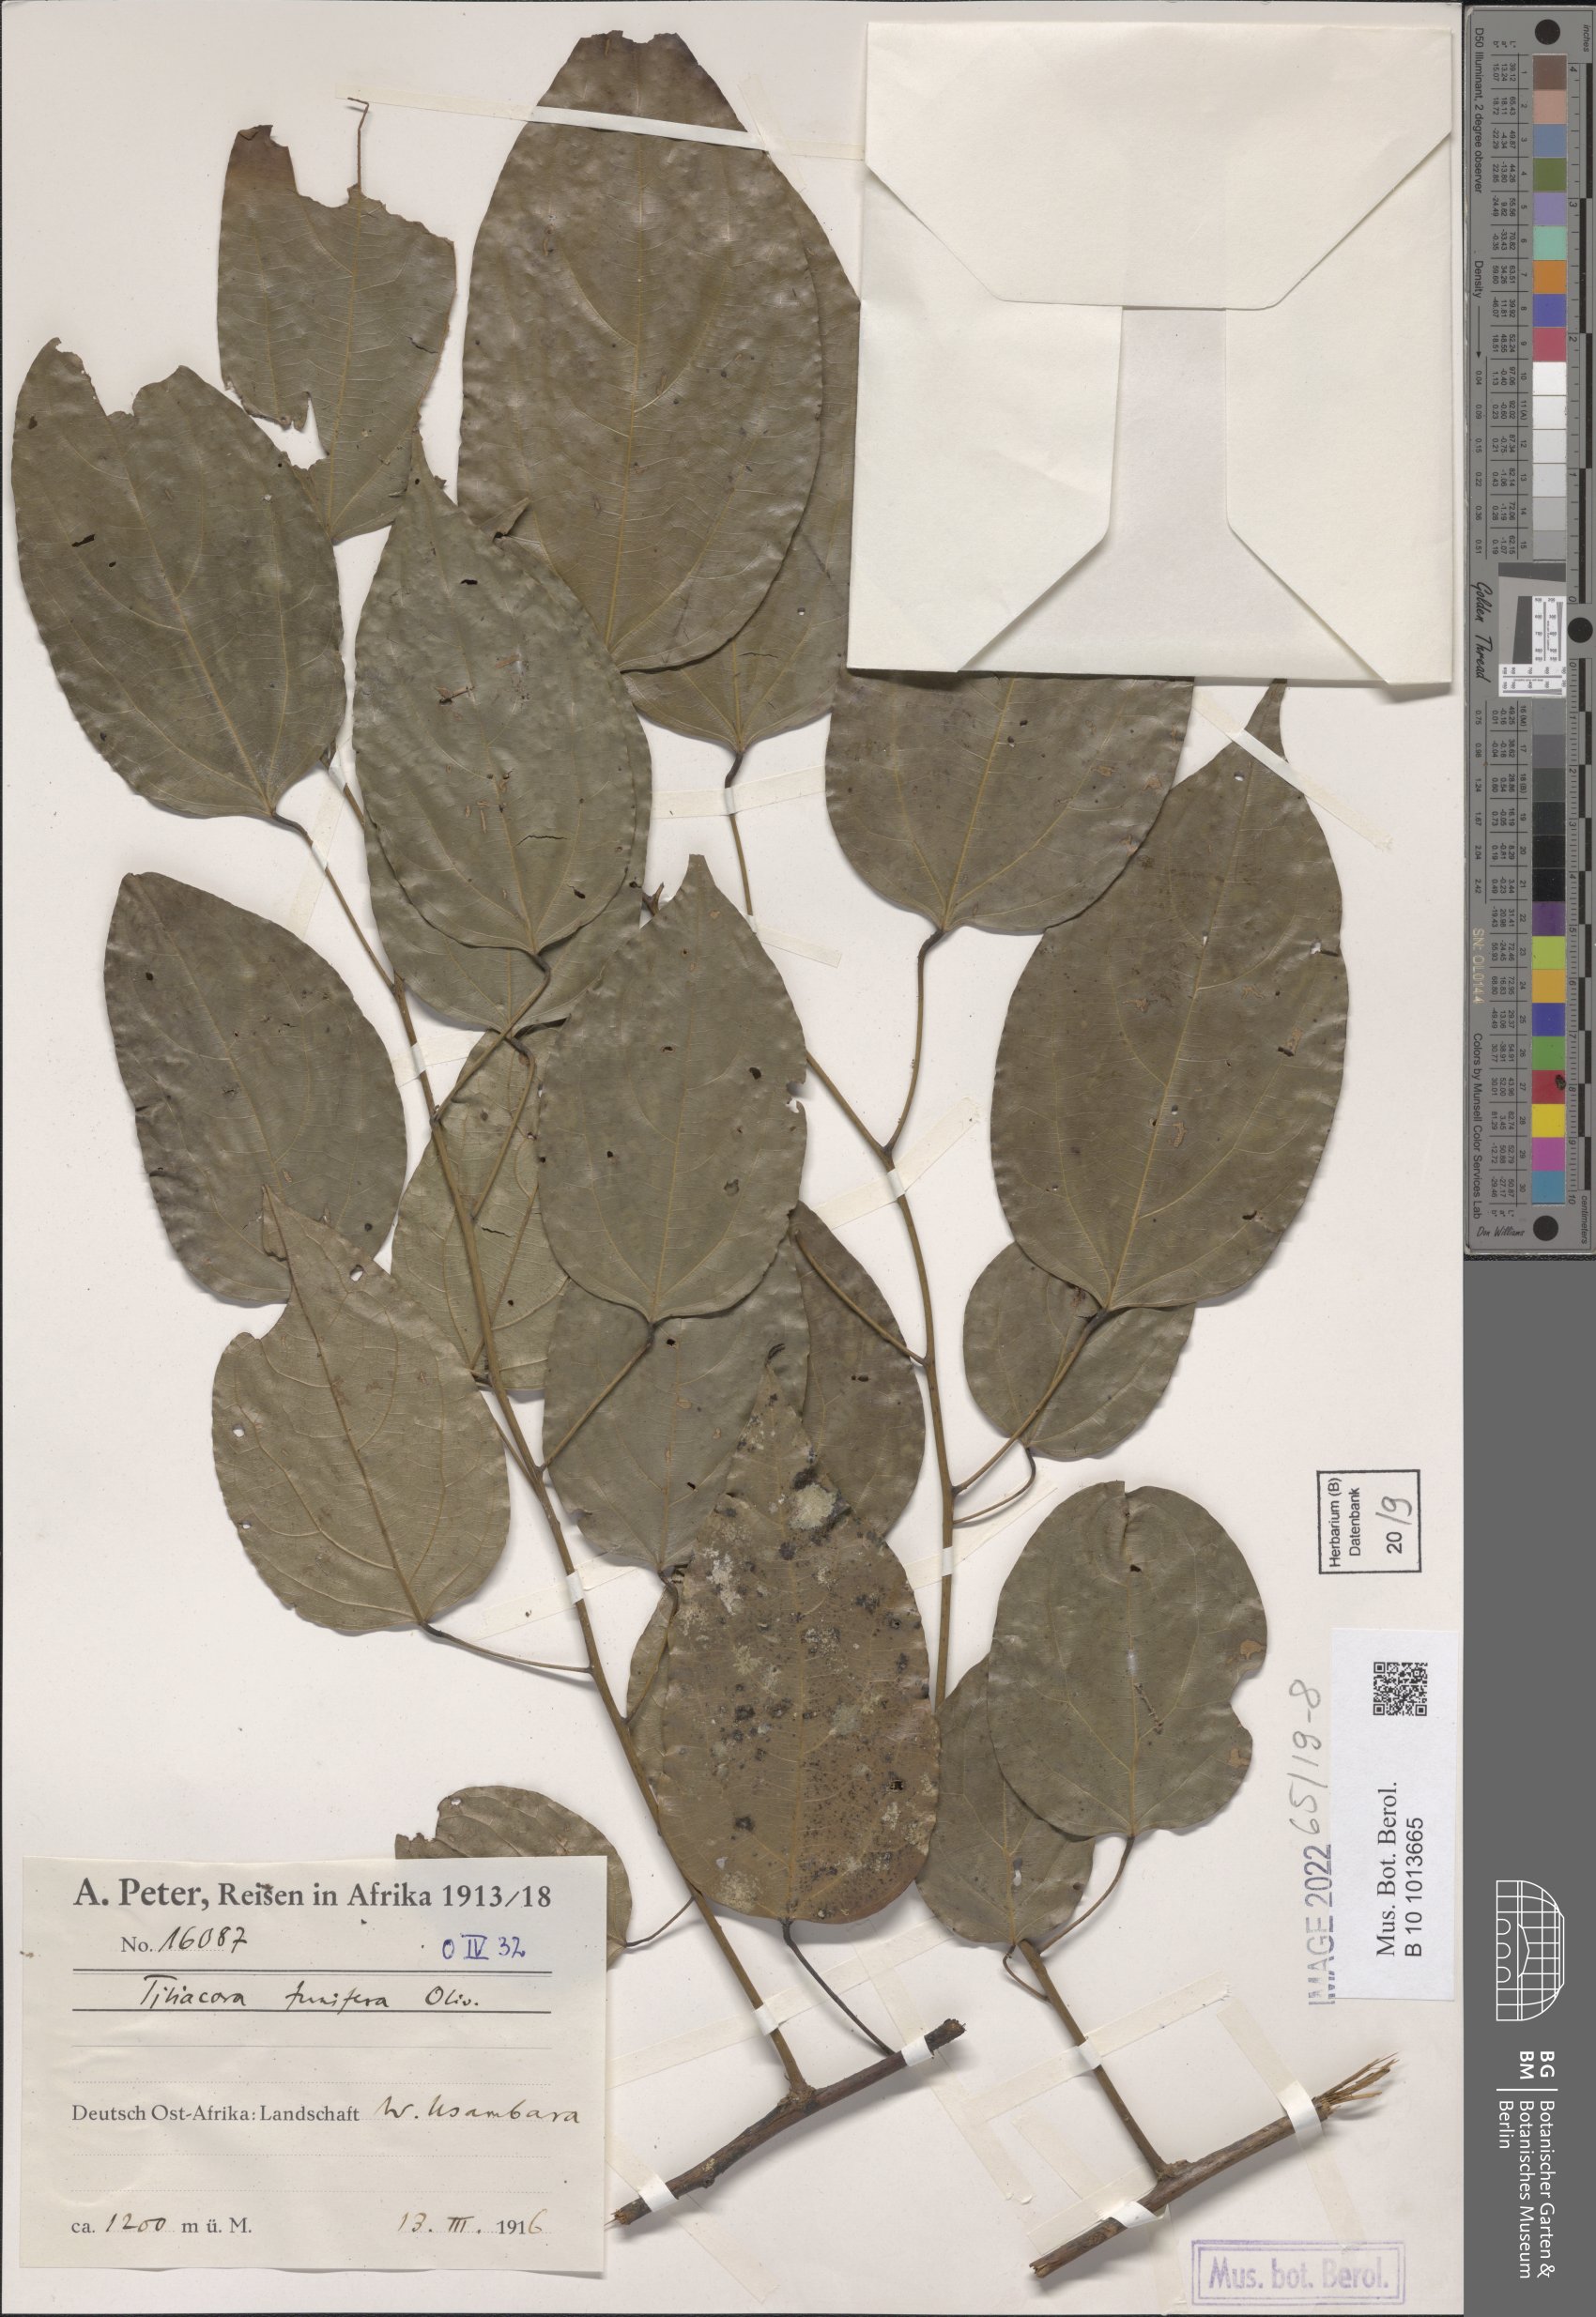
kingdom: Plantae
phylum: Tracheophyta
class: Magnoliopsida
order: Ranunculales
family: Menispermaceae
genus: Tiliacora
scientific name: Tiliacora funifera
